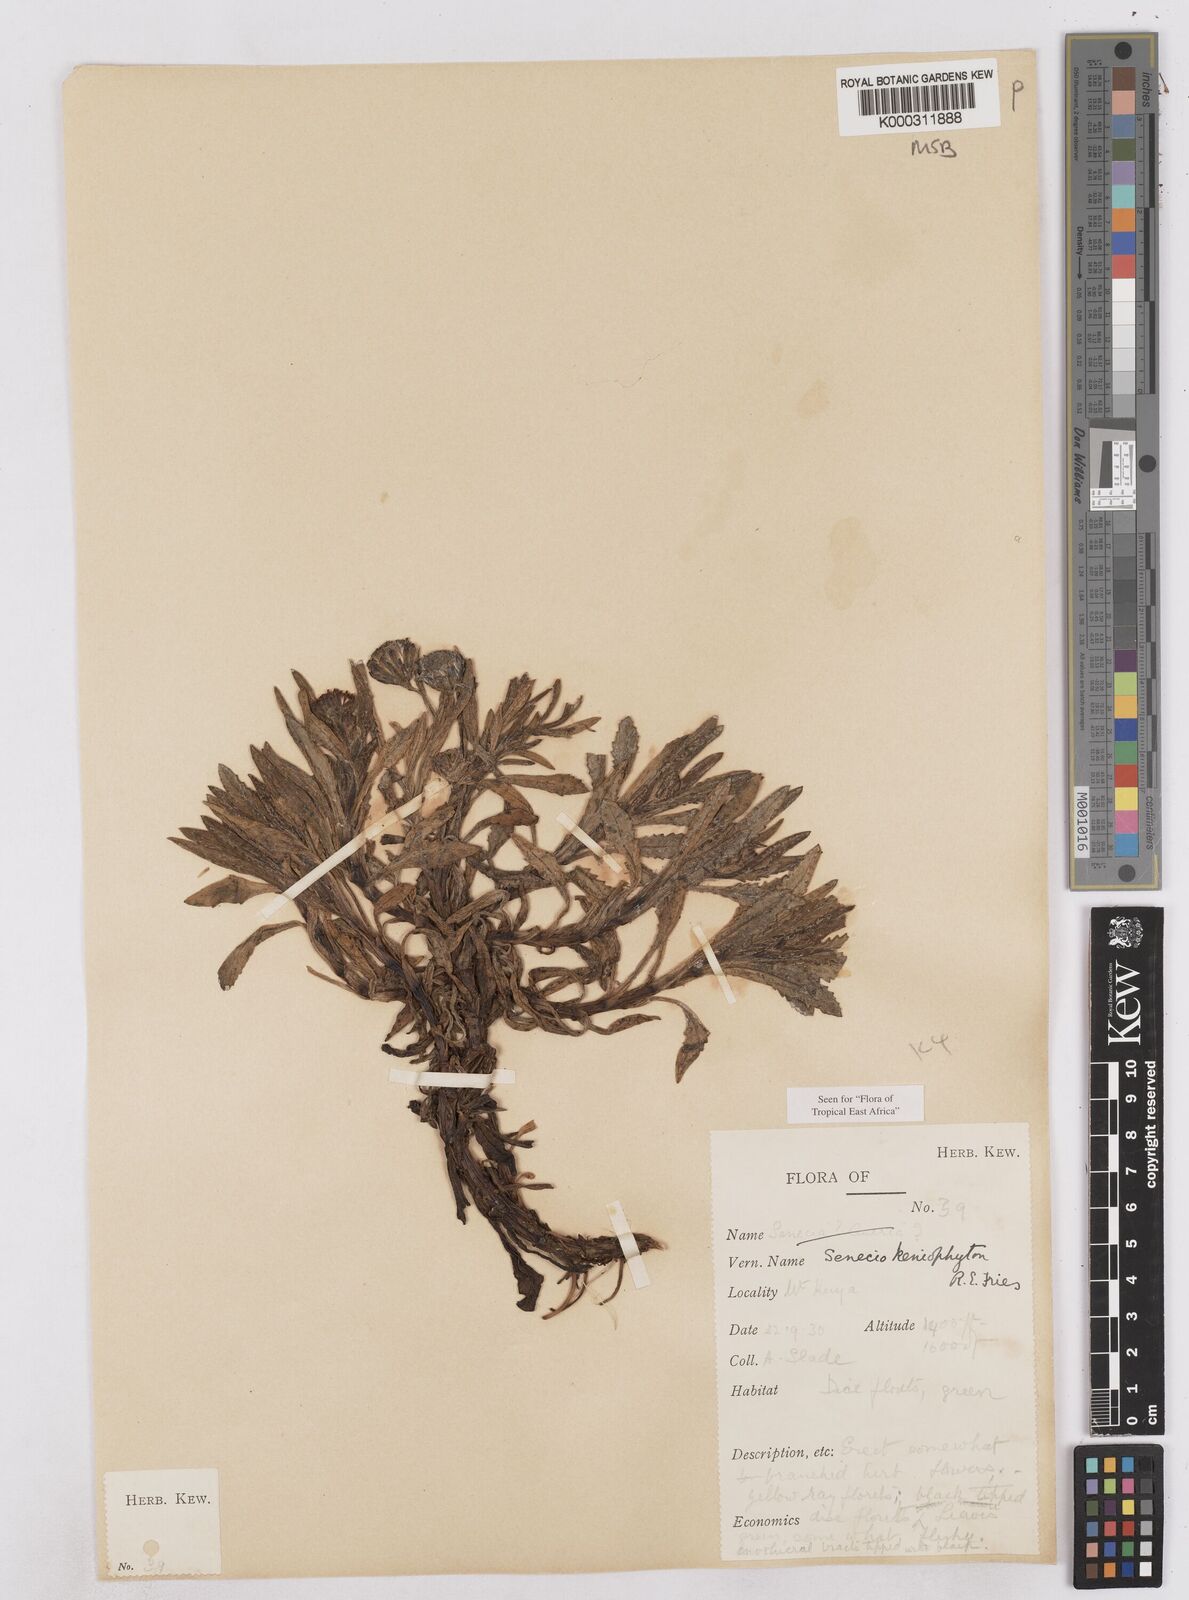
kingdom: Plantae
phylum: Tracheophyta
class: Magnoliopsida
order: Asterales
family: Asteraceae
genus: Senecio
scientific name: Senecio keniophytum
